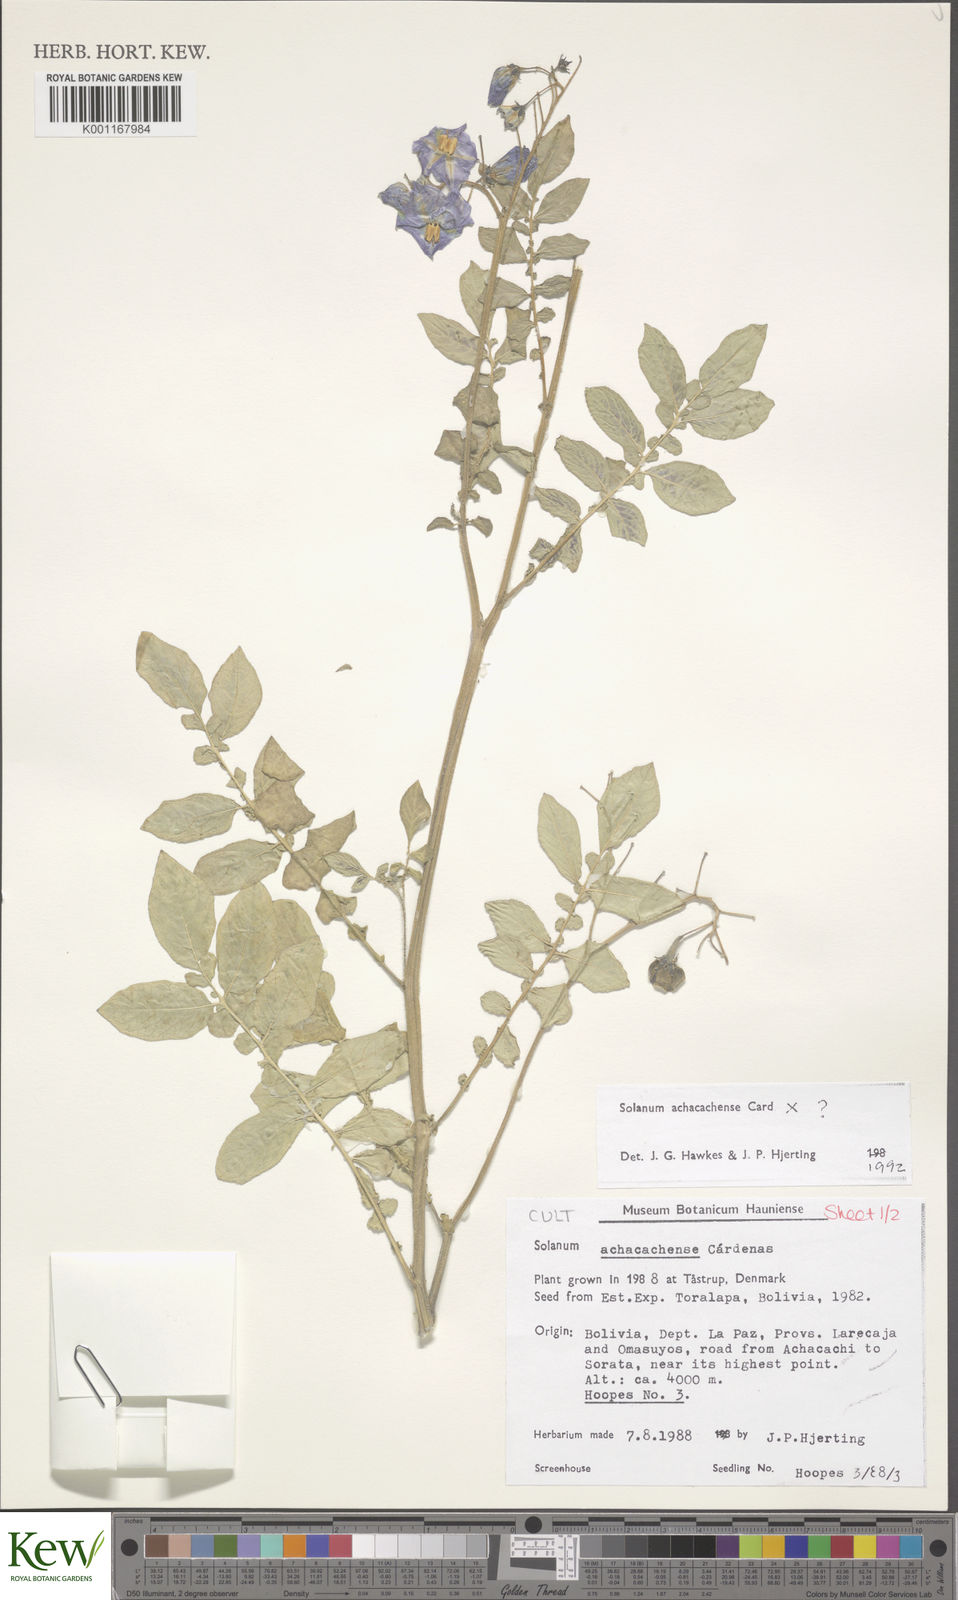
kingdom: Plantae
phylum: Tracheophyta
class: Magnoliopsida
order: Solanales
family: Solanaceae
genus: Solanum
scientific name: Solanum
